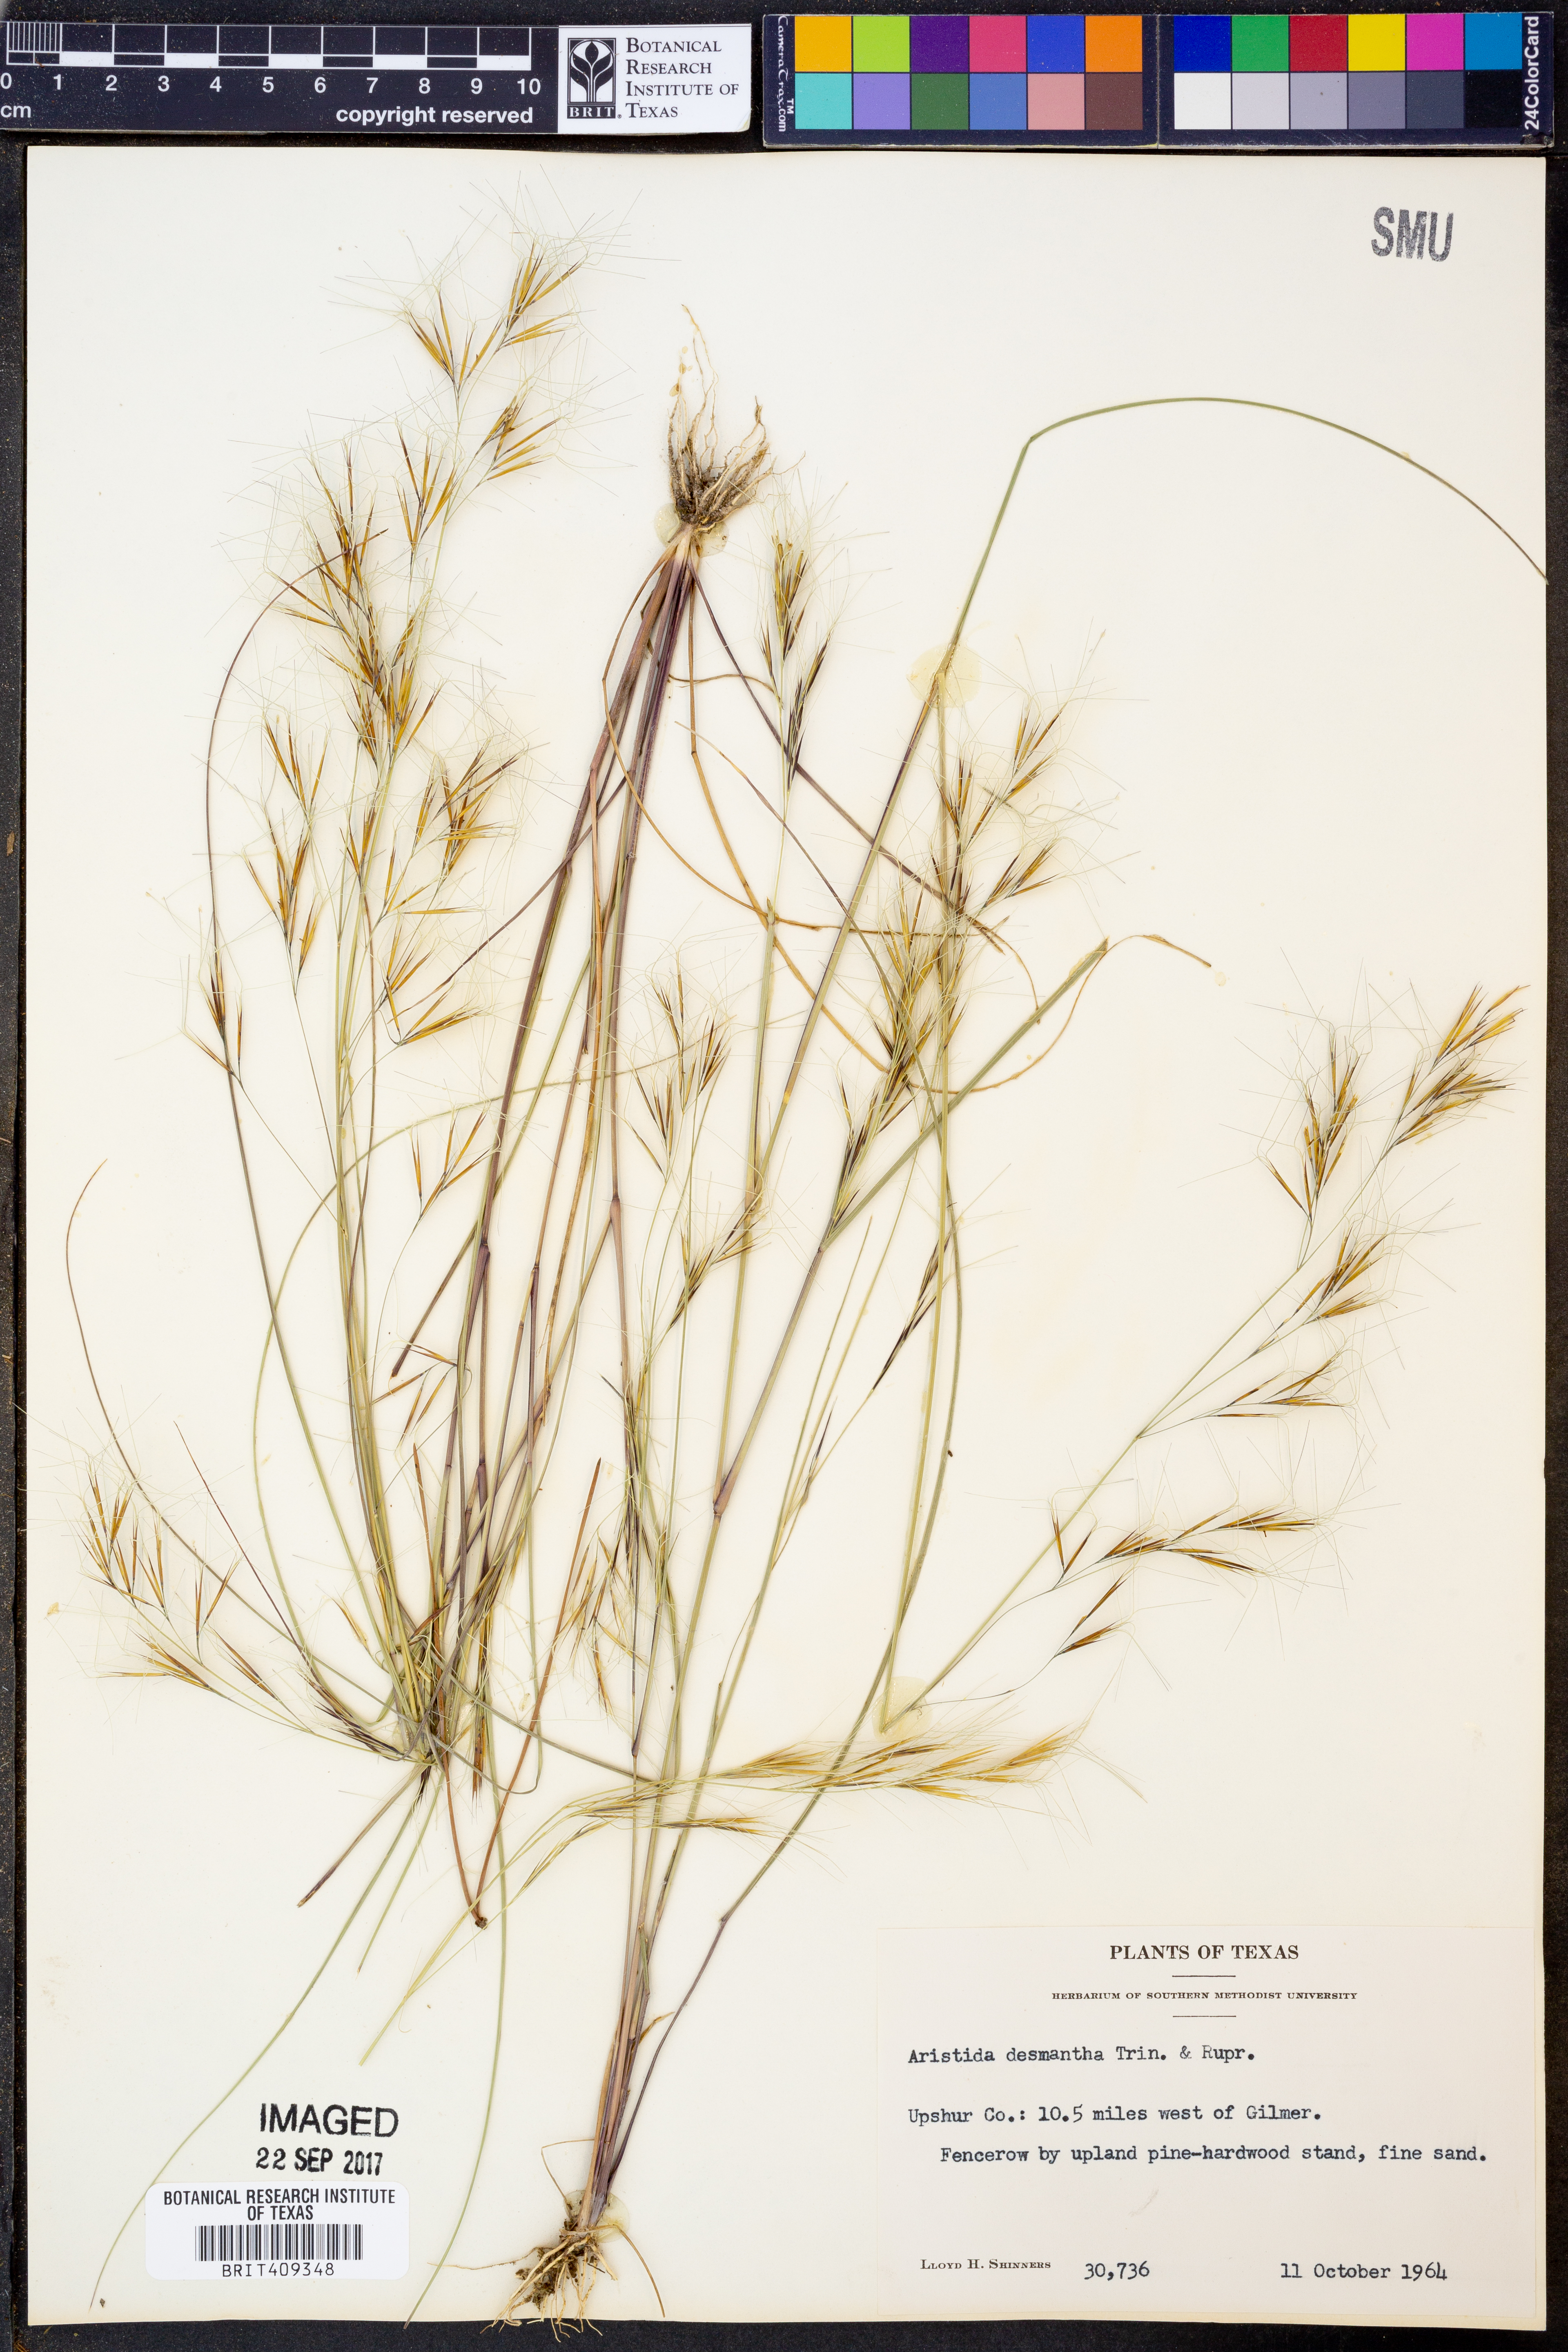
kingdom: Plantae
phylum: Tracheophyta
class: Liliopsida
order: Poales
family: Poaceae
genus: Aristida
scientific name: Aristida desmantha
